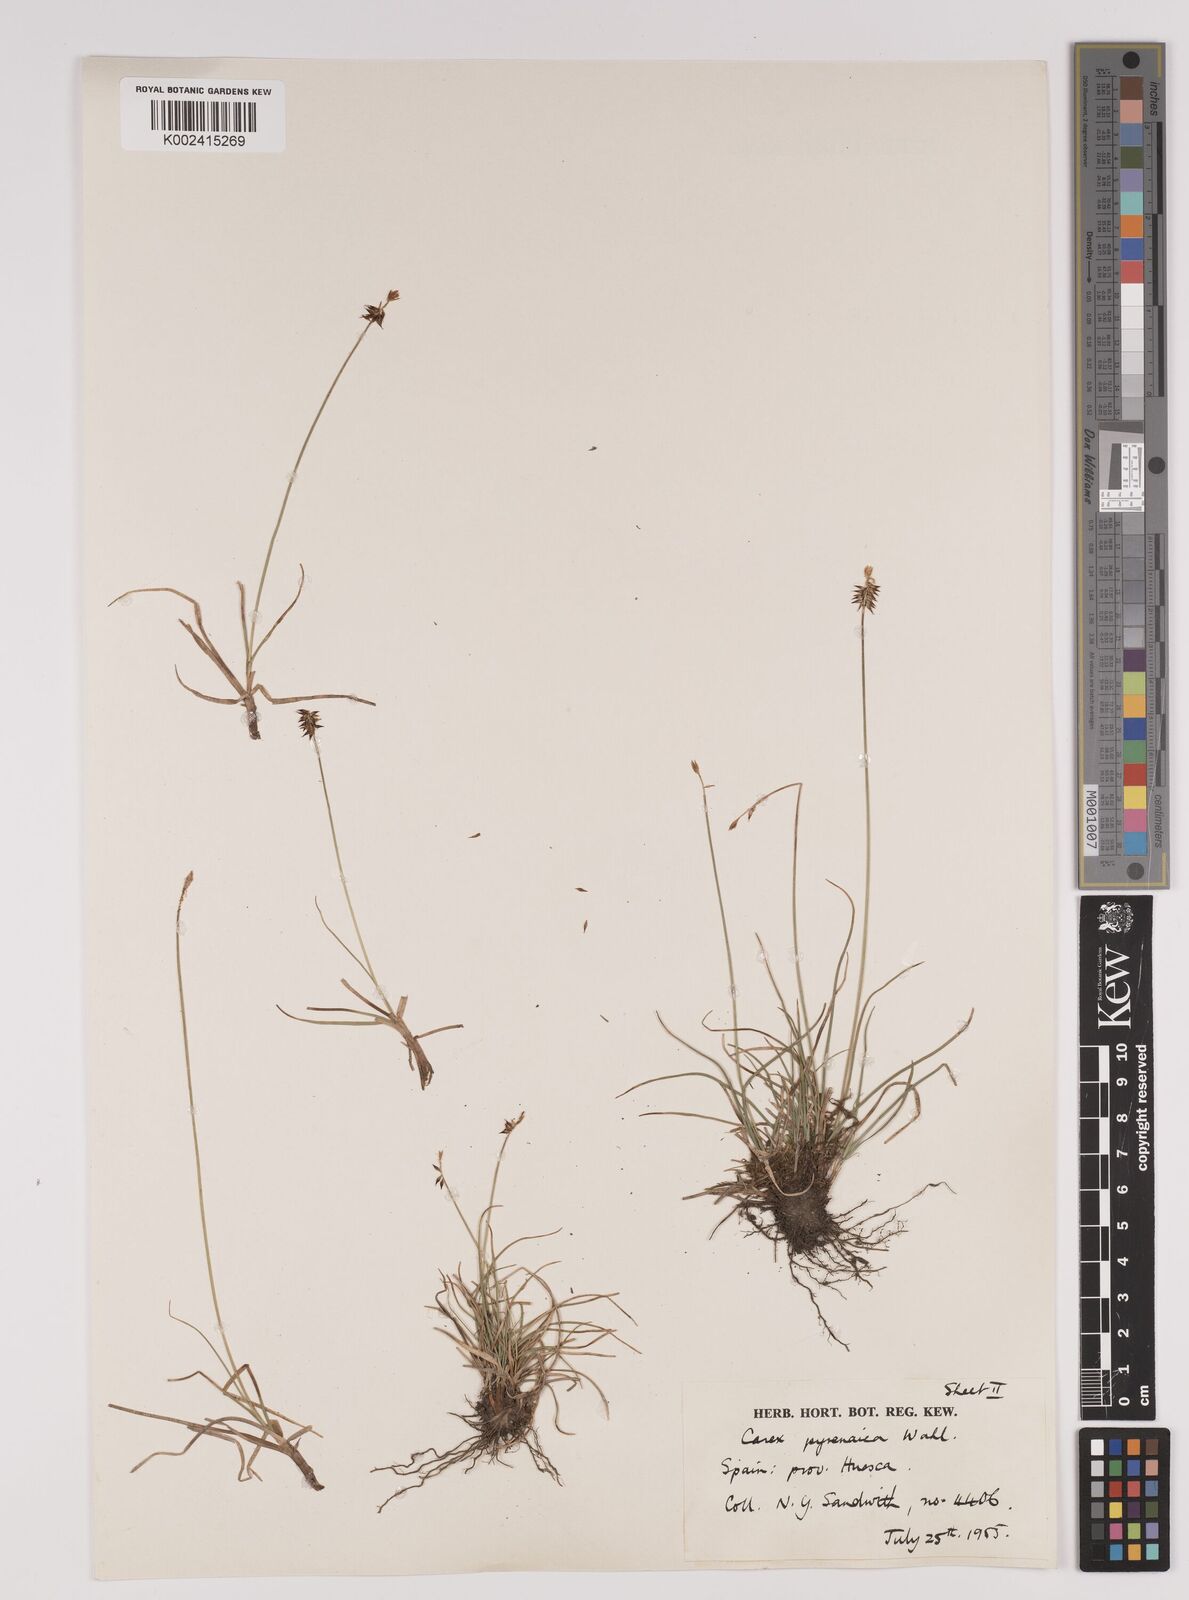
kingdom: Plantae
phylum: Tracheophyta
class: Liliopsida
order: Poales
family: Cyperaceae
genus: Carex
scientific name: Carex pyrenaica
